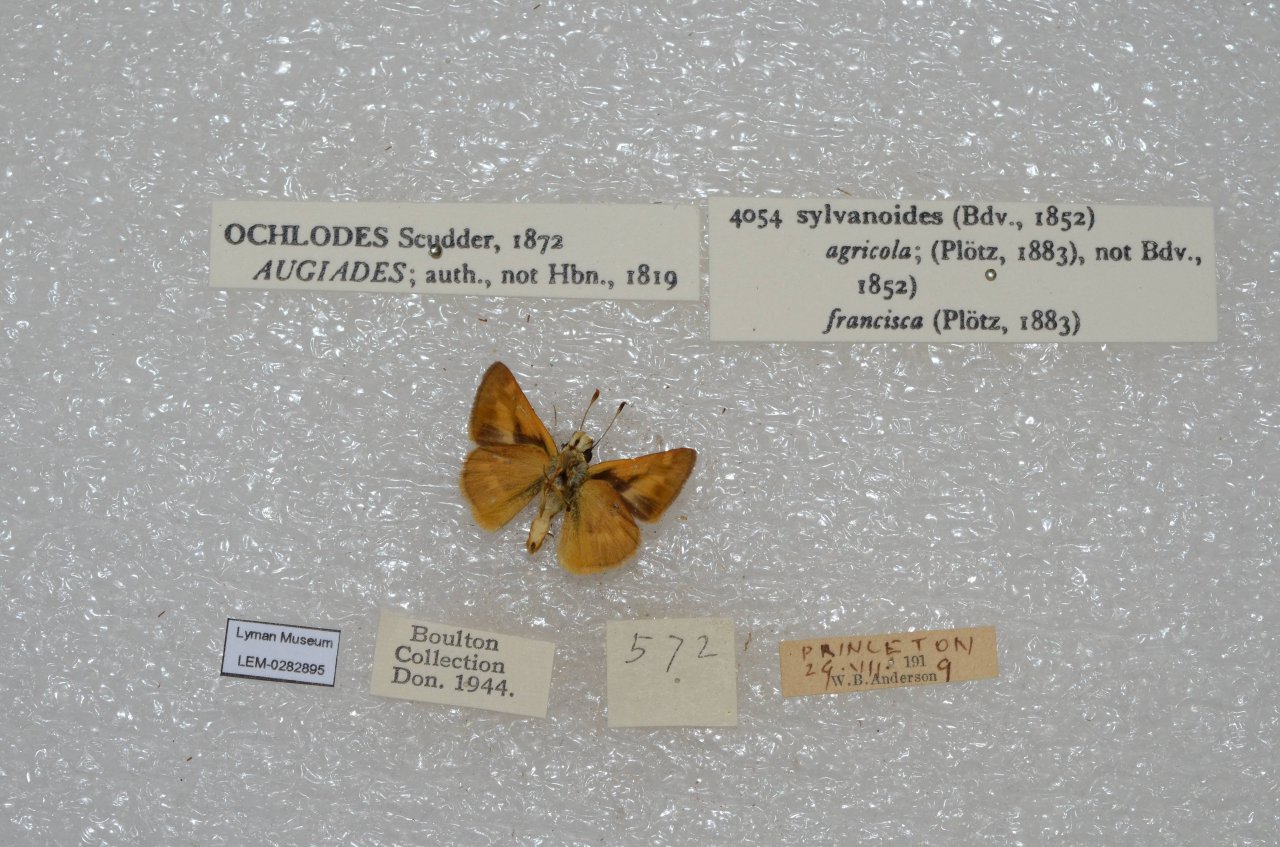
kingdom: Animalia
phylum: Arthropoda
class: Insecta
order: Lepidoptera
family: Hesperiidae
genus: Ochlodes
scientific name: Ochlodes sylvanoides
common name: Woodland Skipper
